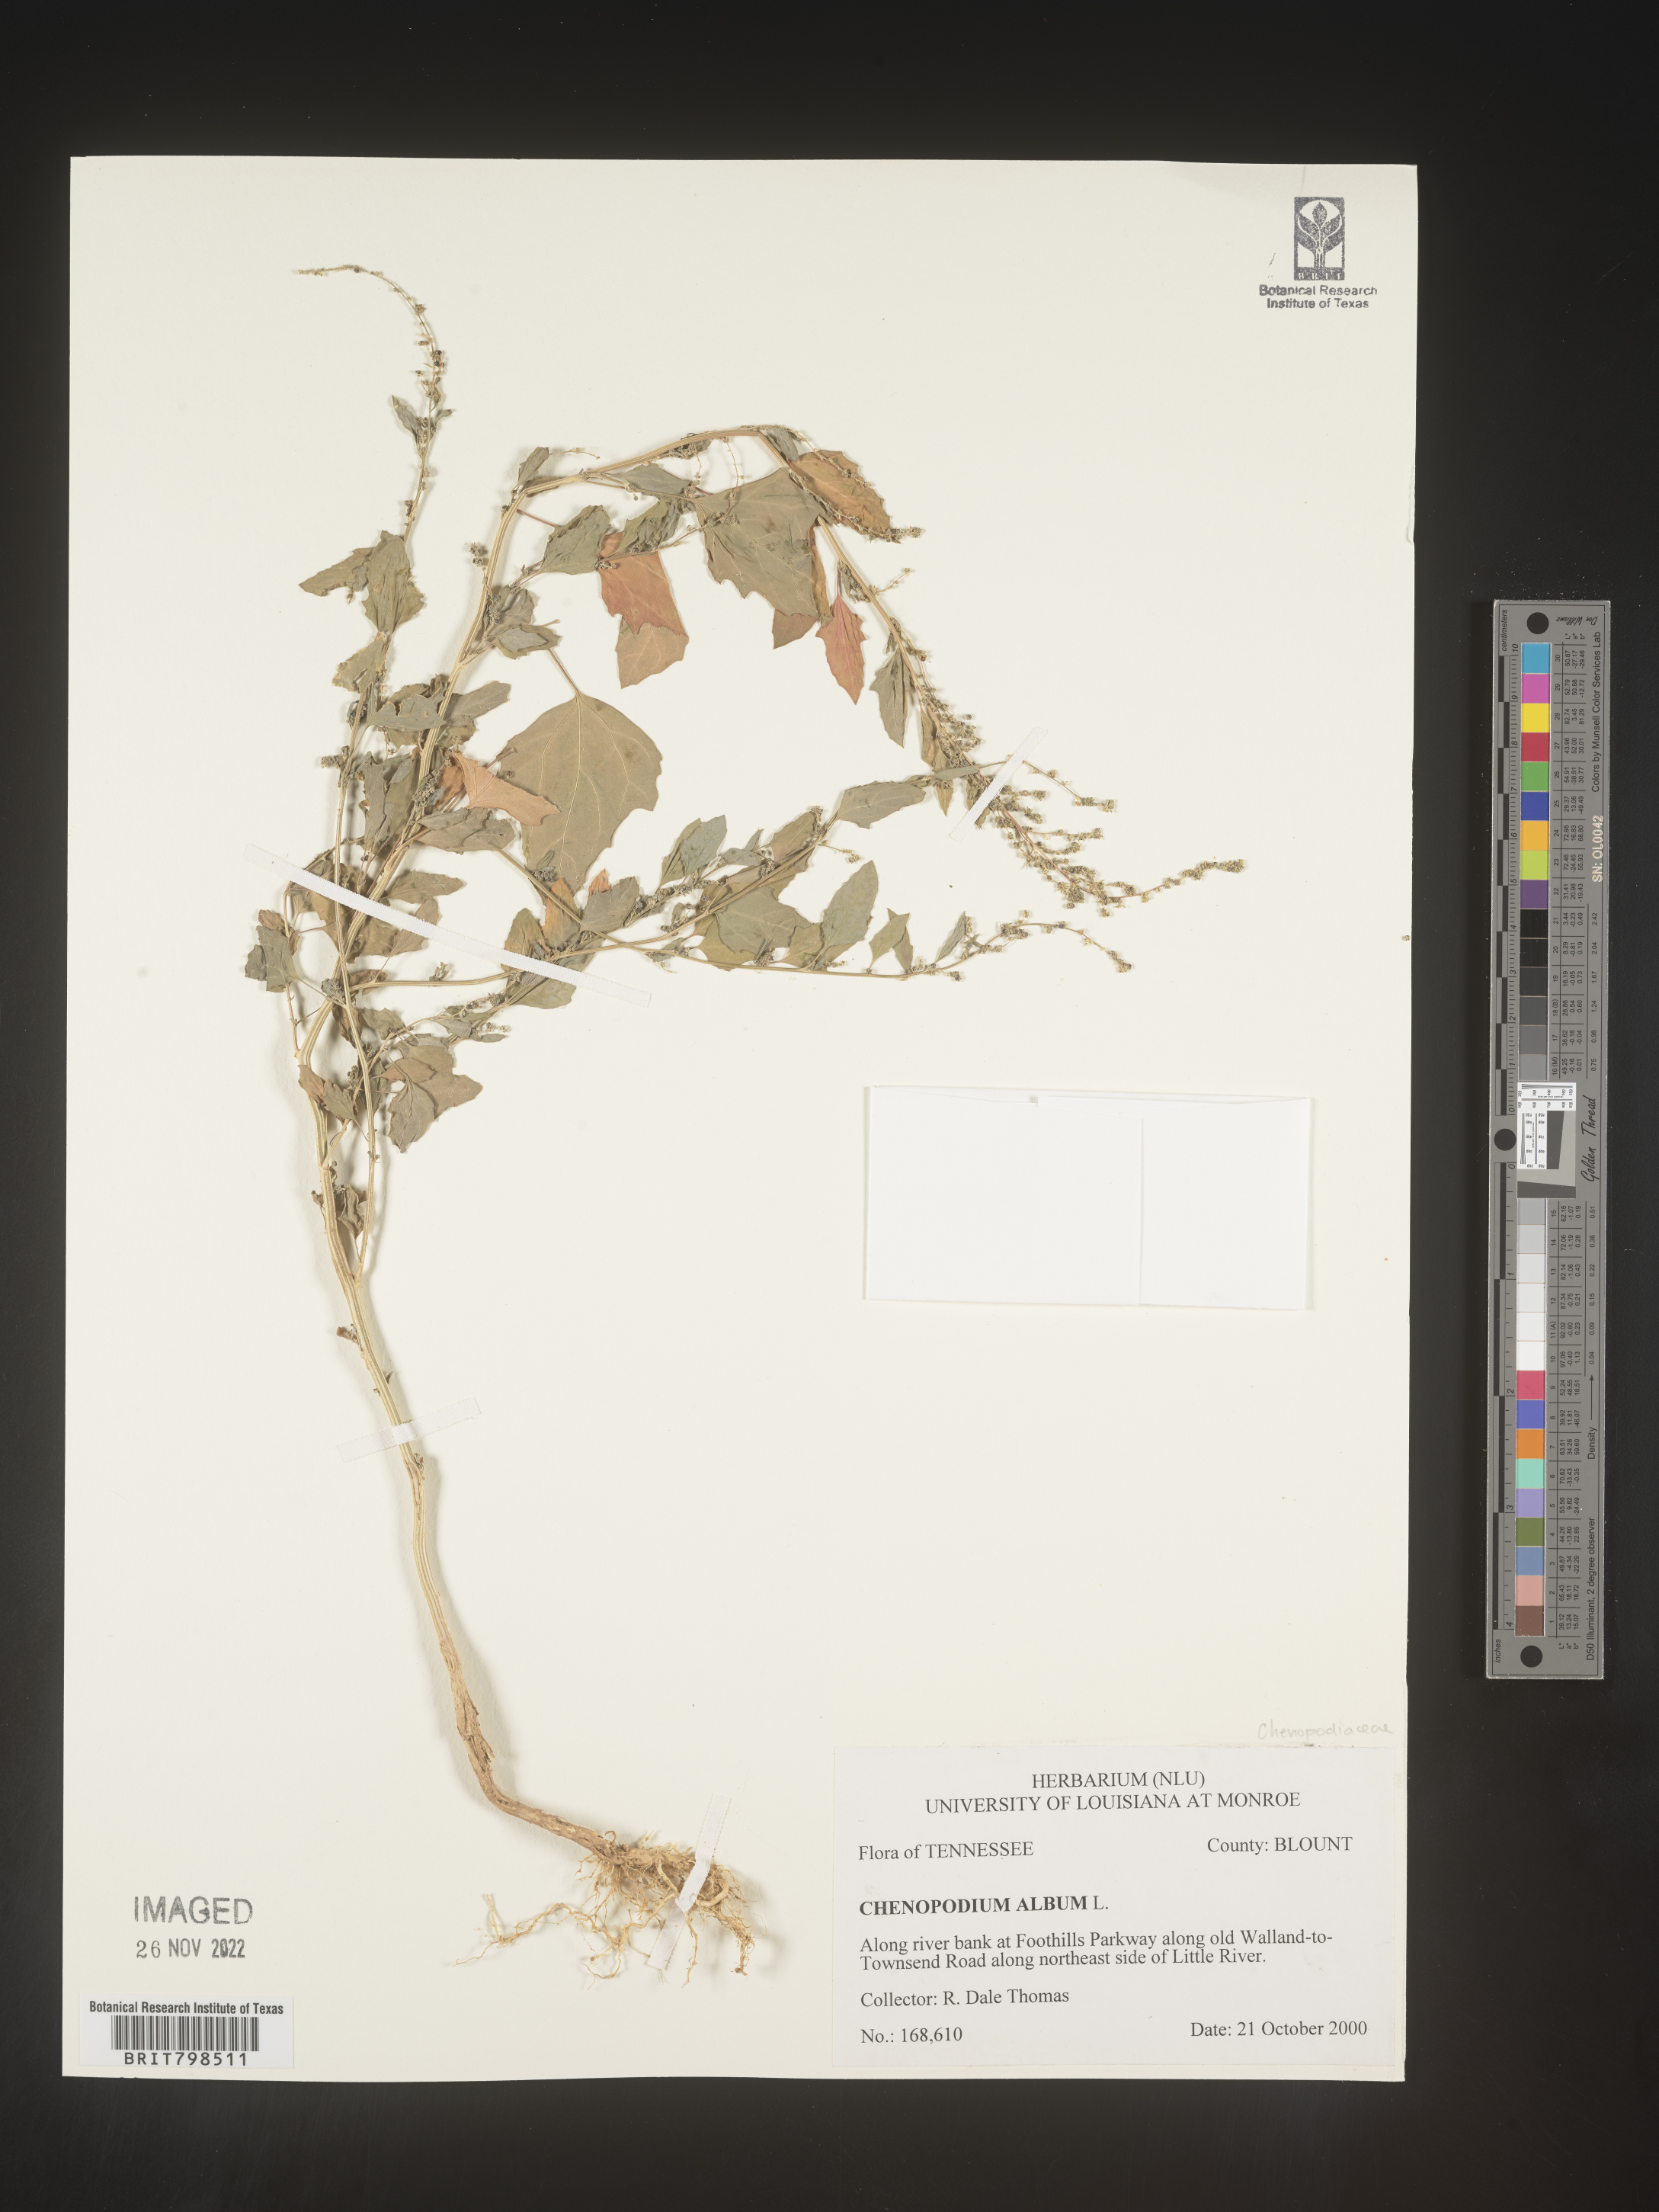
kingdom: Plantae
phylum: Tracheophyta
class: Magnoliopsida
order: Caryophyllales
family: Amaranthaceae
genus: Chenopodium
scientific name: Chenopodium album
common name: Fat-hen
